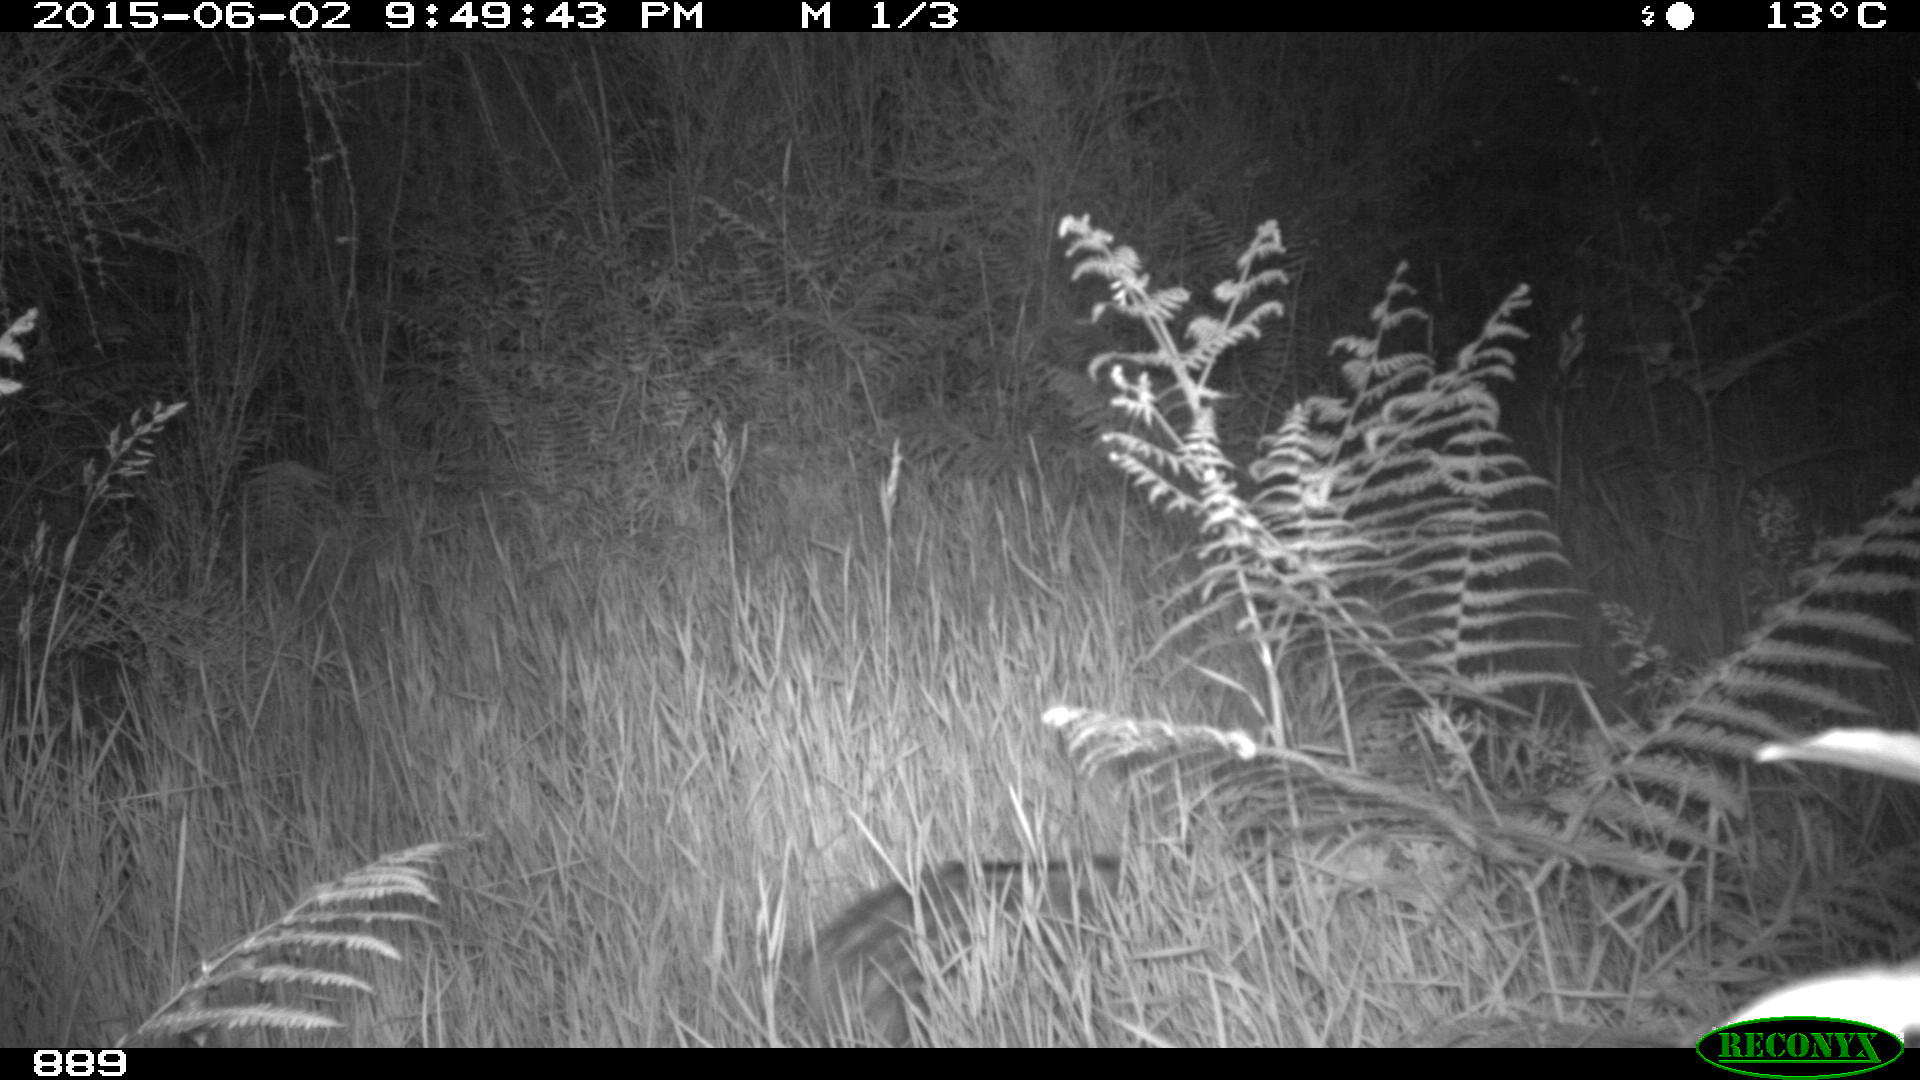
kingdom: Animalia
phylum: Chordata
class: Mammalia
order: Artiodactyla
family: Suidae
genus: Sus
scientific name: Sus scrofa
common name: Wild boar
